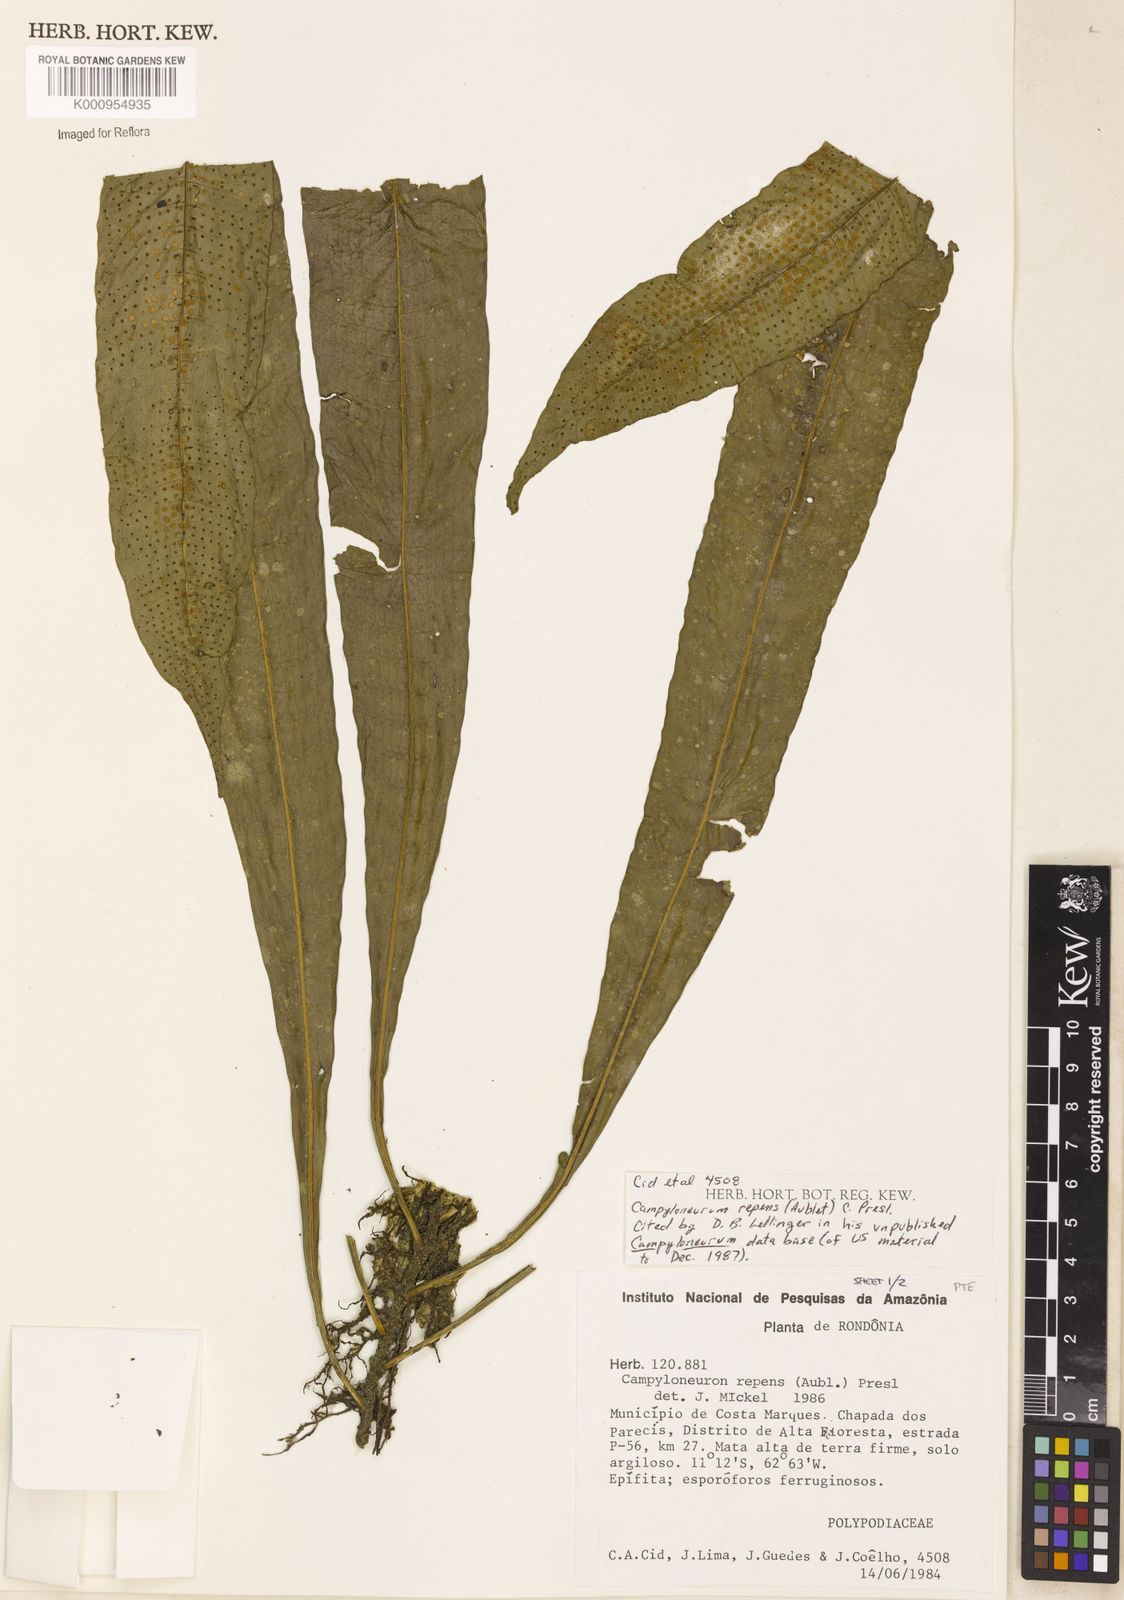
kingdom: Plantae
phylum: Tracheophyta
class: Polypodiopsida
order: Polypodiales
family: Polypodiaceae
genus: Campyloneurum
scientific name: Campyloneurum repens
